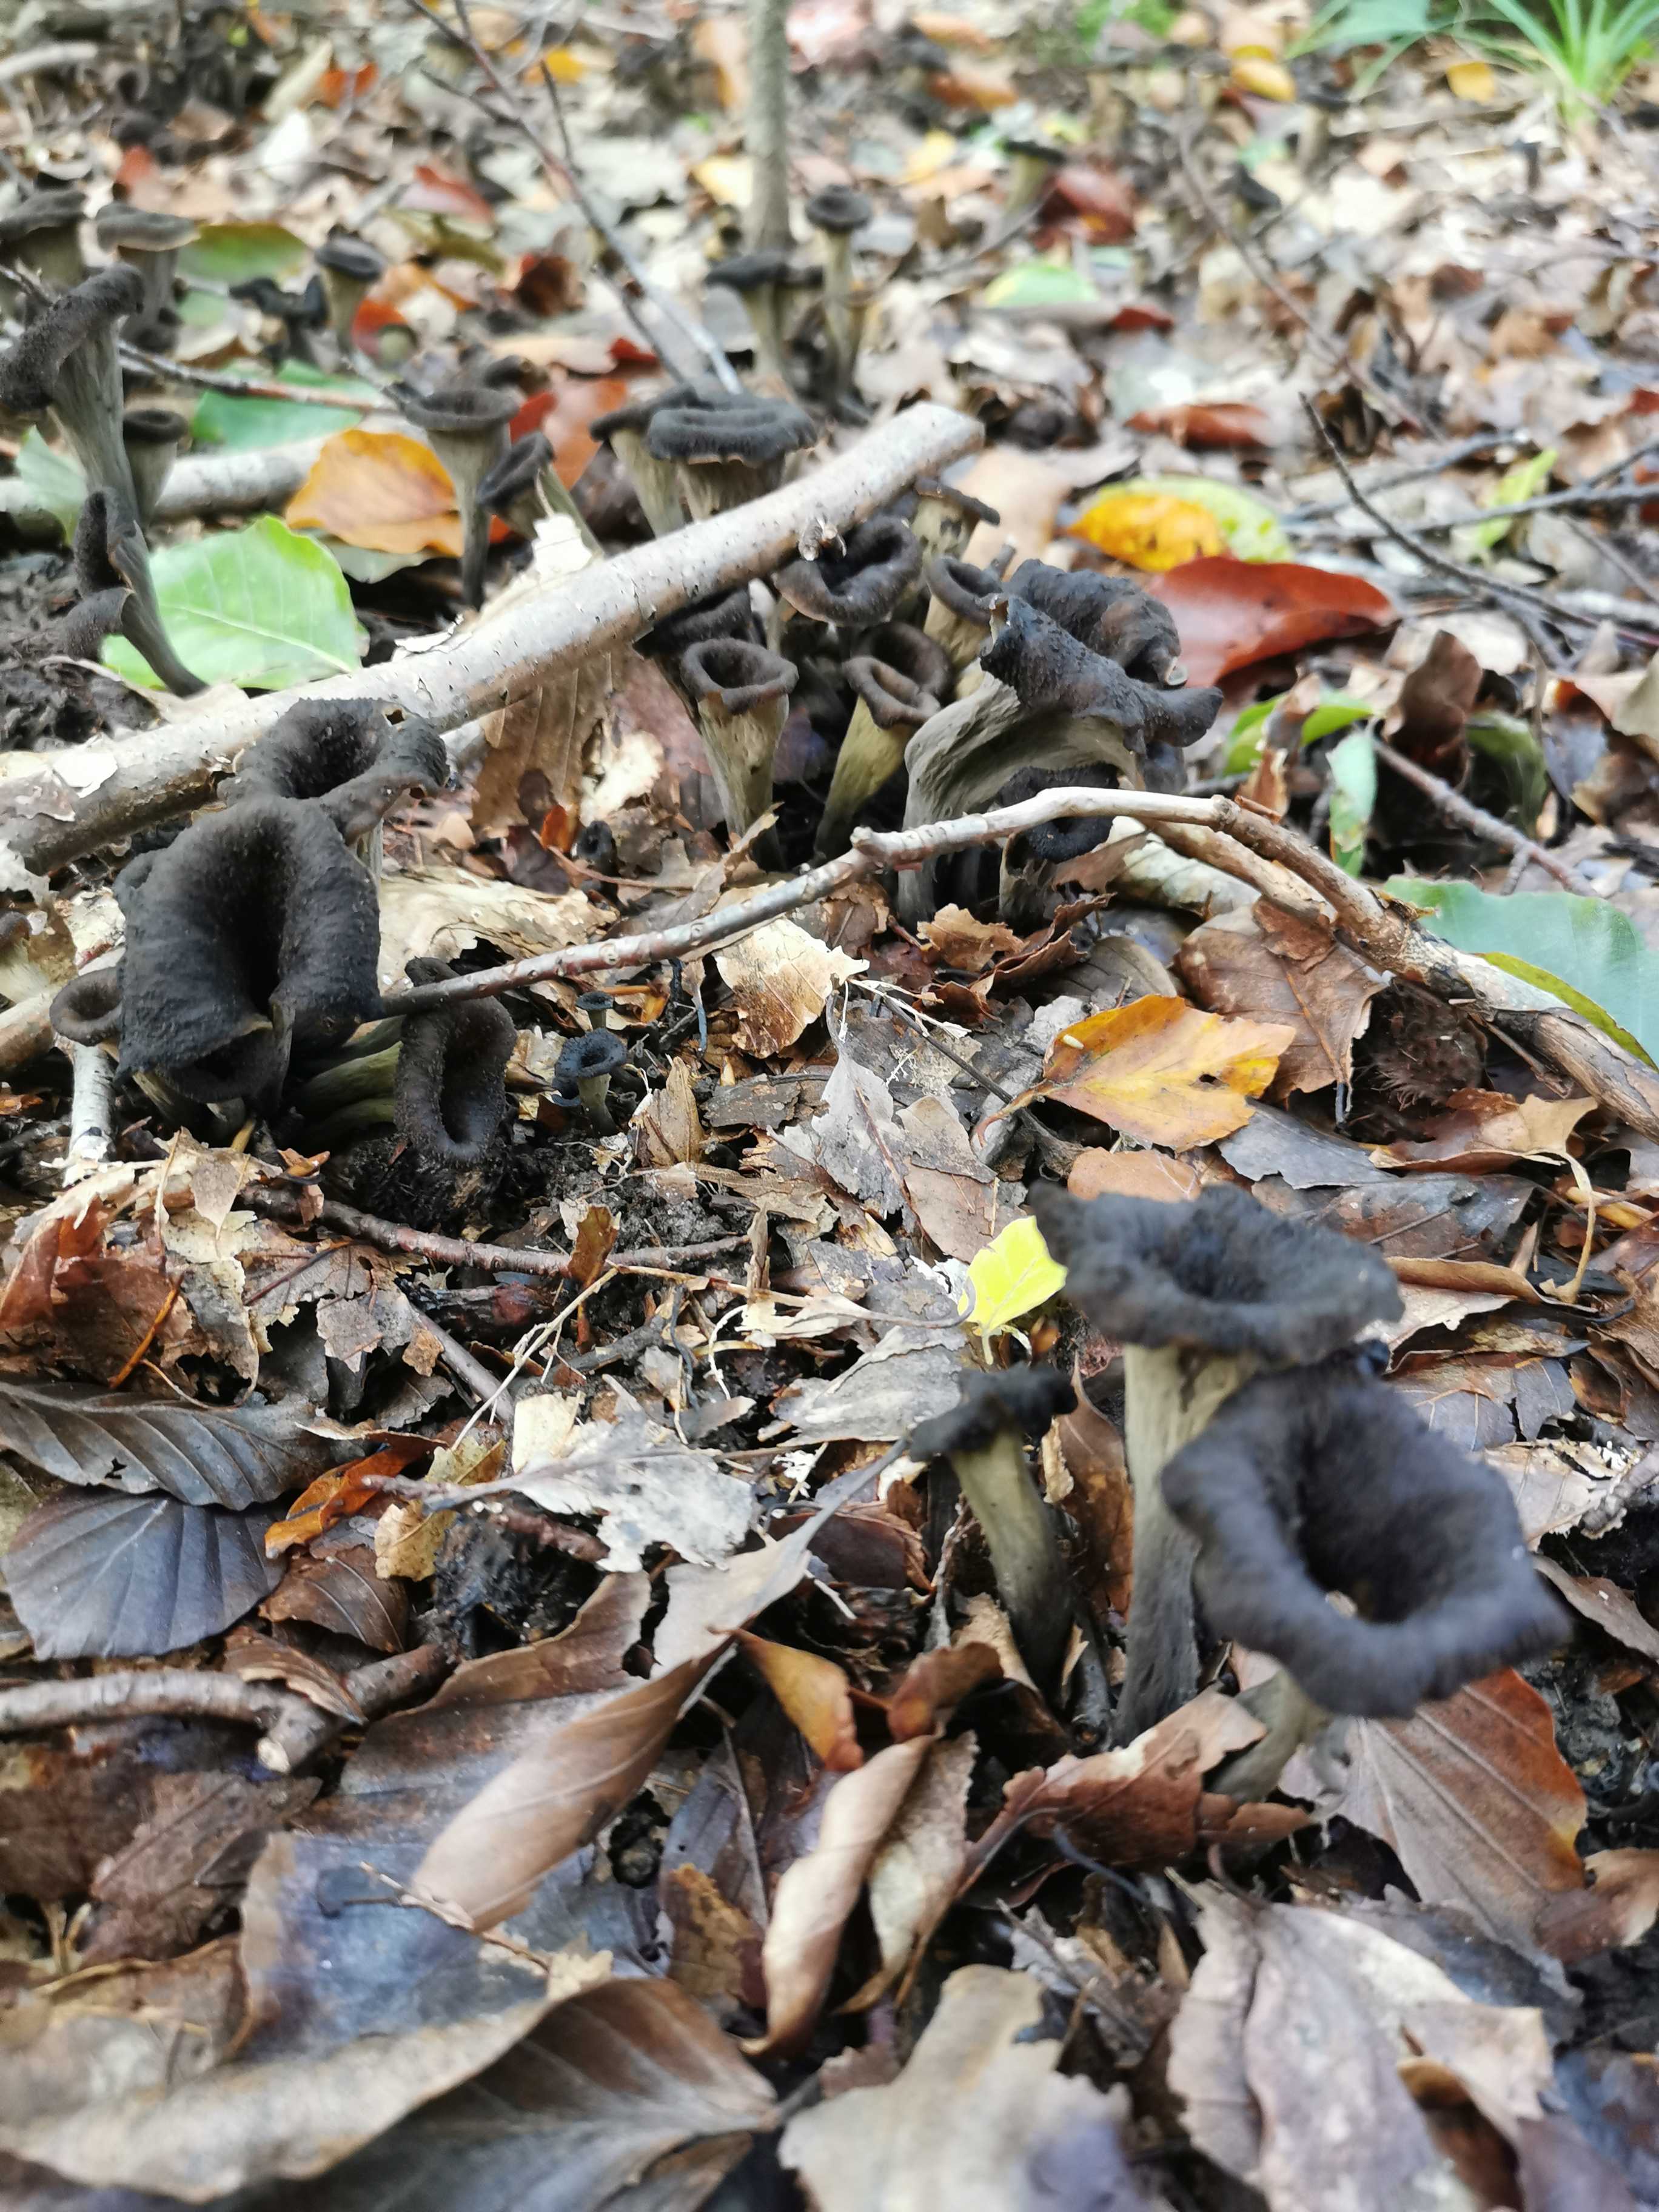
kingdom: Fungi
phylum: Basidiomycota
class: Agaricomycetes
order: Cantharellales
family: Hydnaceae
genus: Craterellus
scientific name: Craterellus cornucopioides
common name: trompetsvamp
